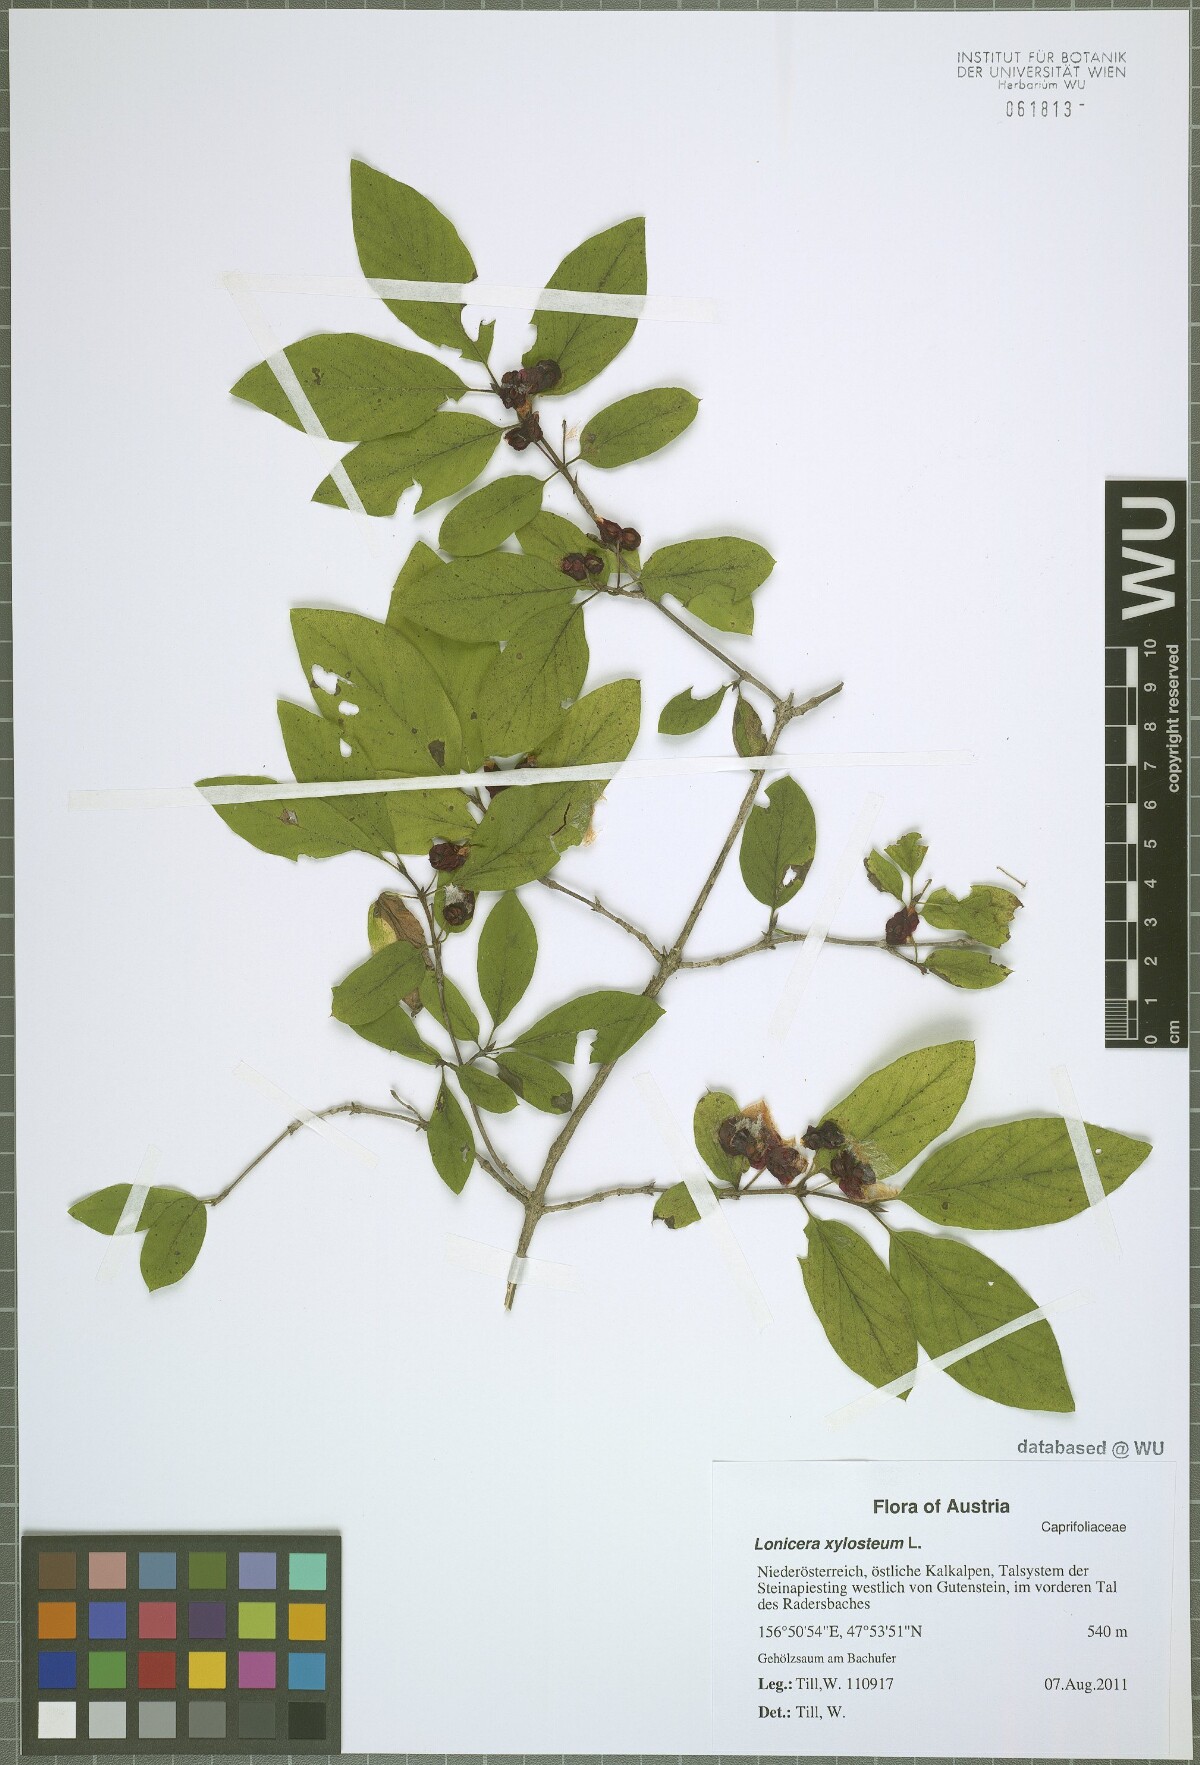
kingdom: Plantae
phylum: Tracheophyta
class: Magnoliopsida
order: Dipsacales
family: Caprifoliaceae
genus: Lonicera
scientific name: Lonicera xylosteum
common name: Fly honeysuckle
